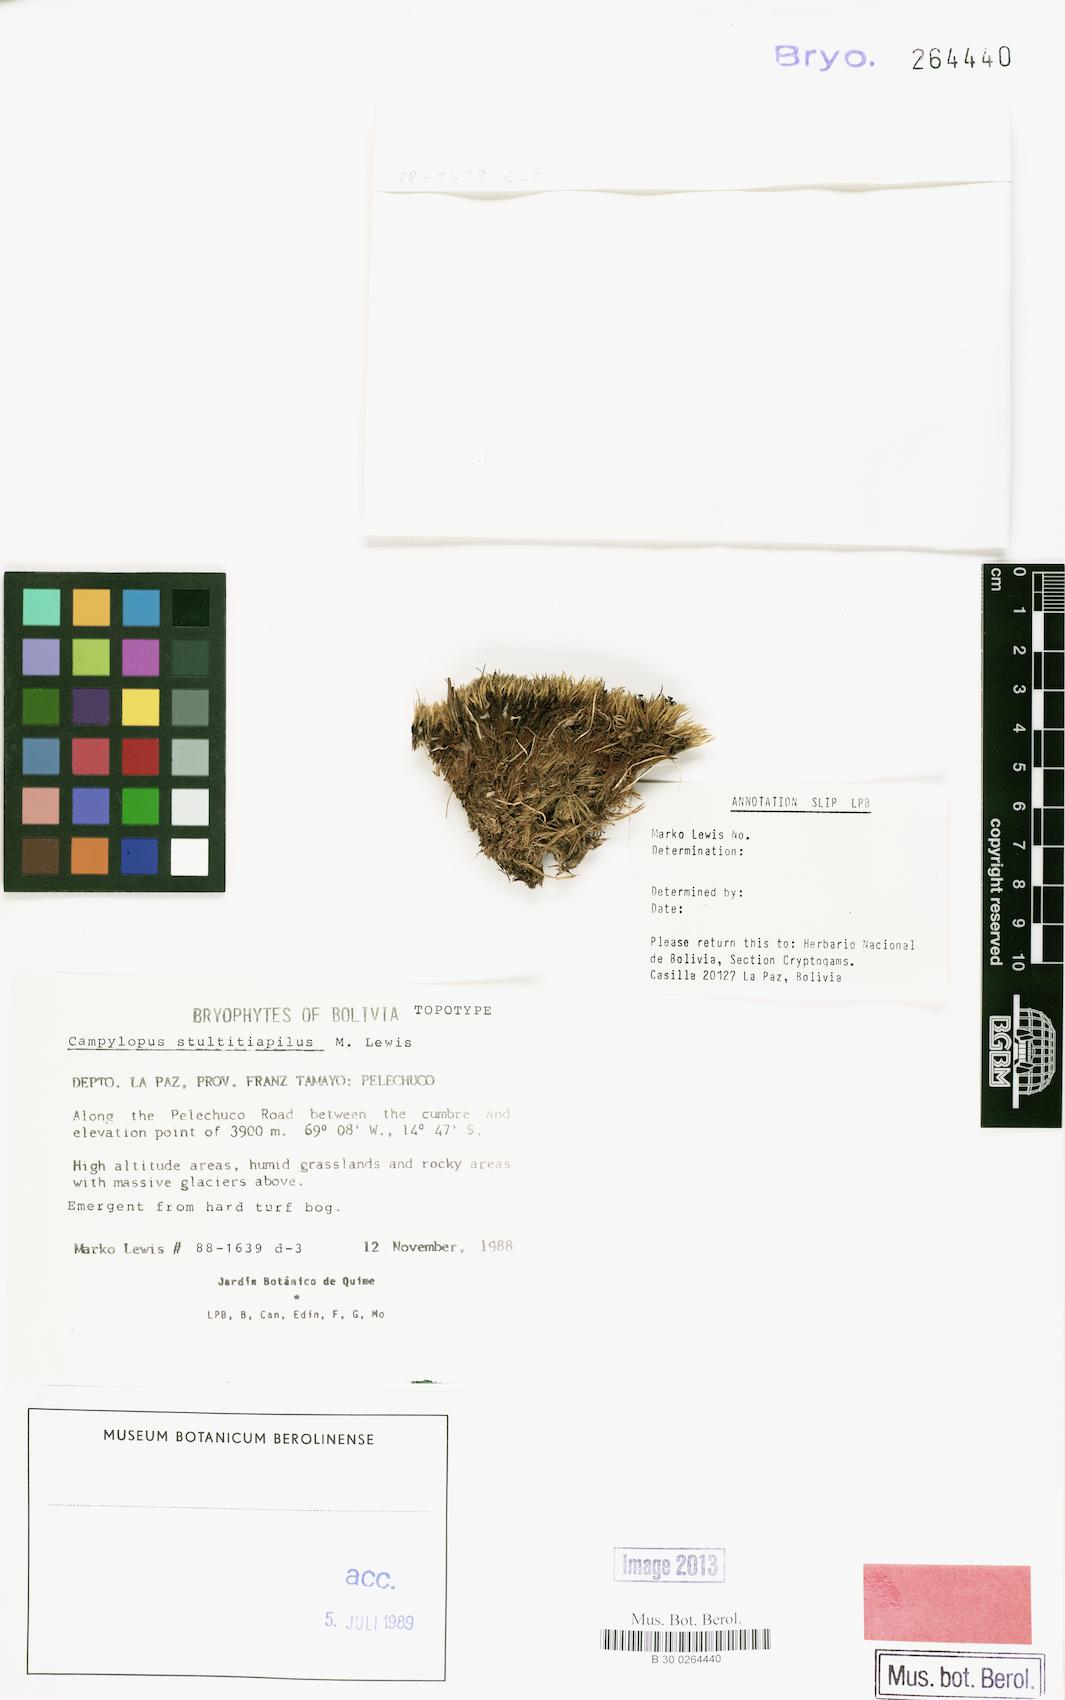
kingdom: Plantae
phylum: Bryophyta
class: Bryopsida
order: Dicranales
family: Dicranaceae
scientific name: Dicranaceae
